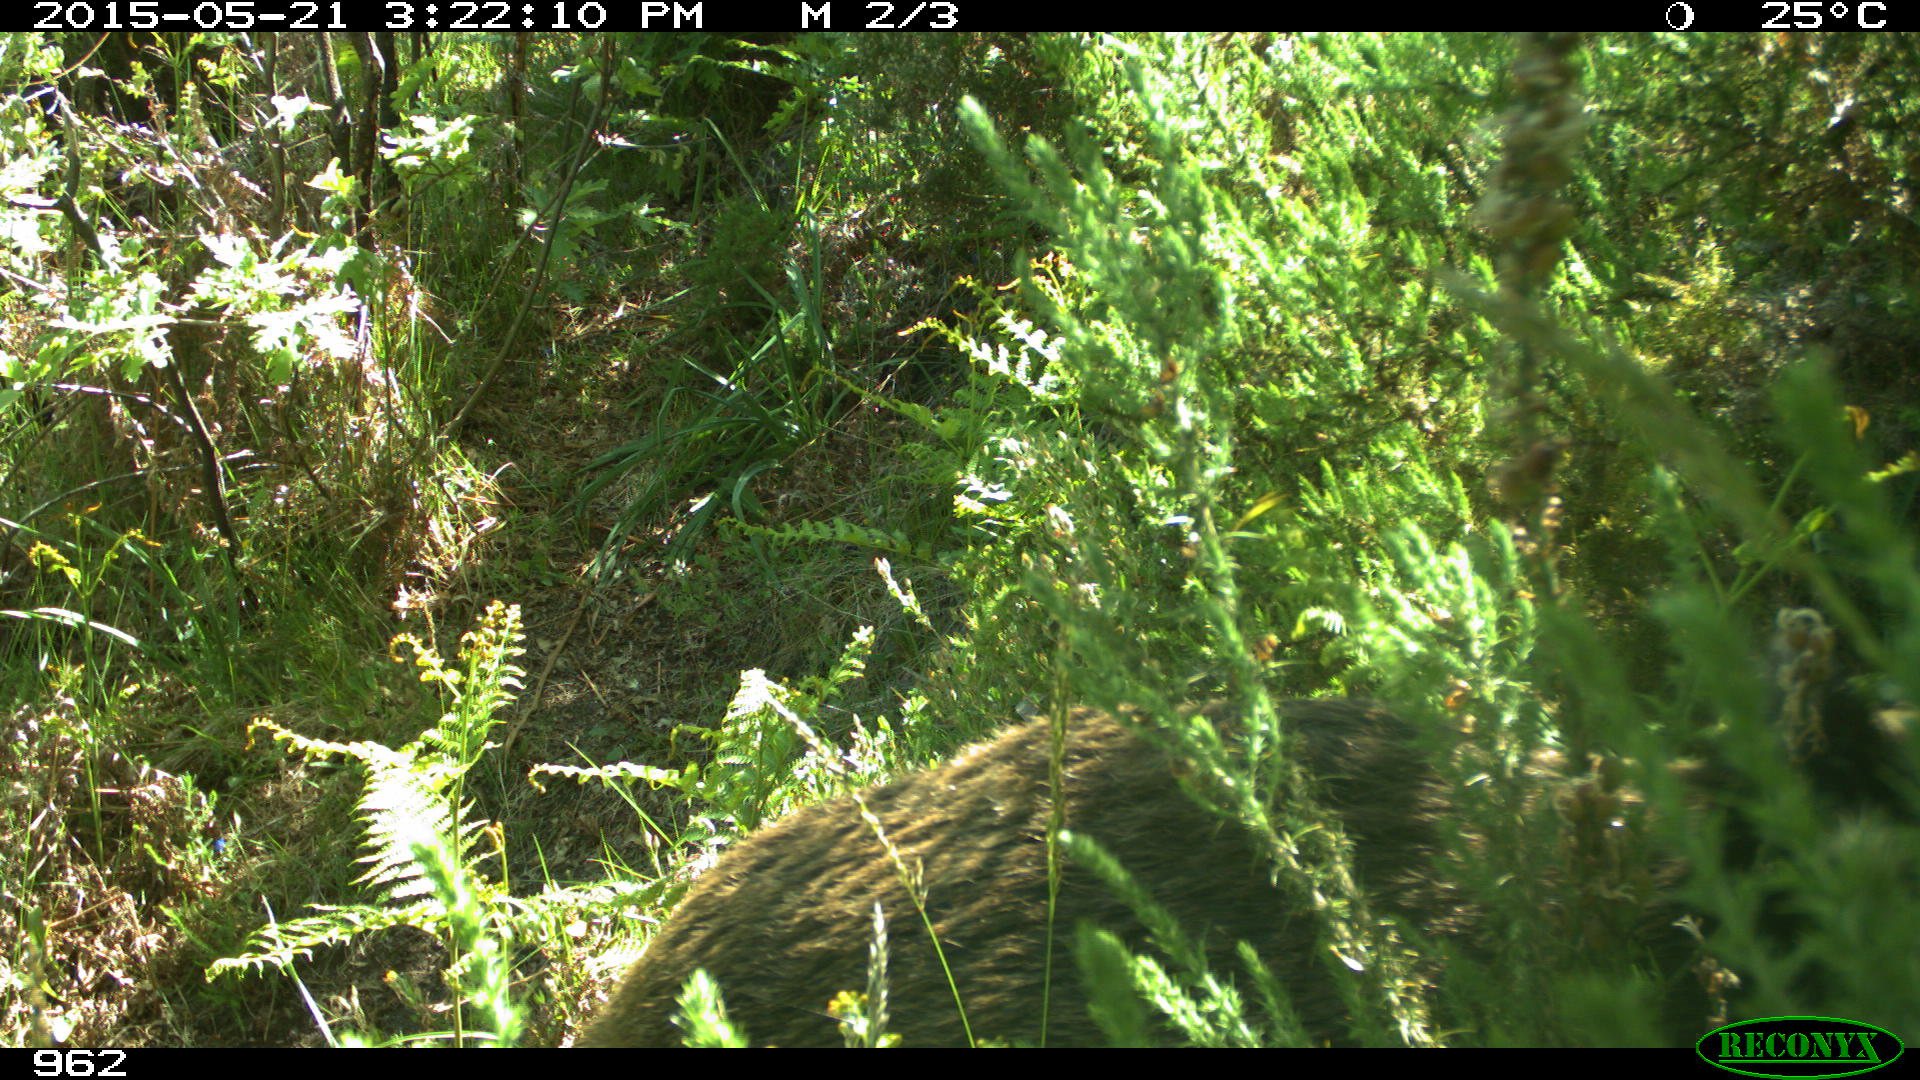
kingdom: Animalia
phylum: Chordata
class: Mammalia
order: Artiodactyla
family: Suidae
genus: Sus
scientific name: Sus scrofa
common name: Wild boar
